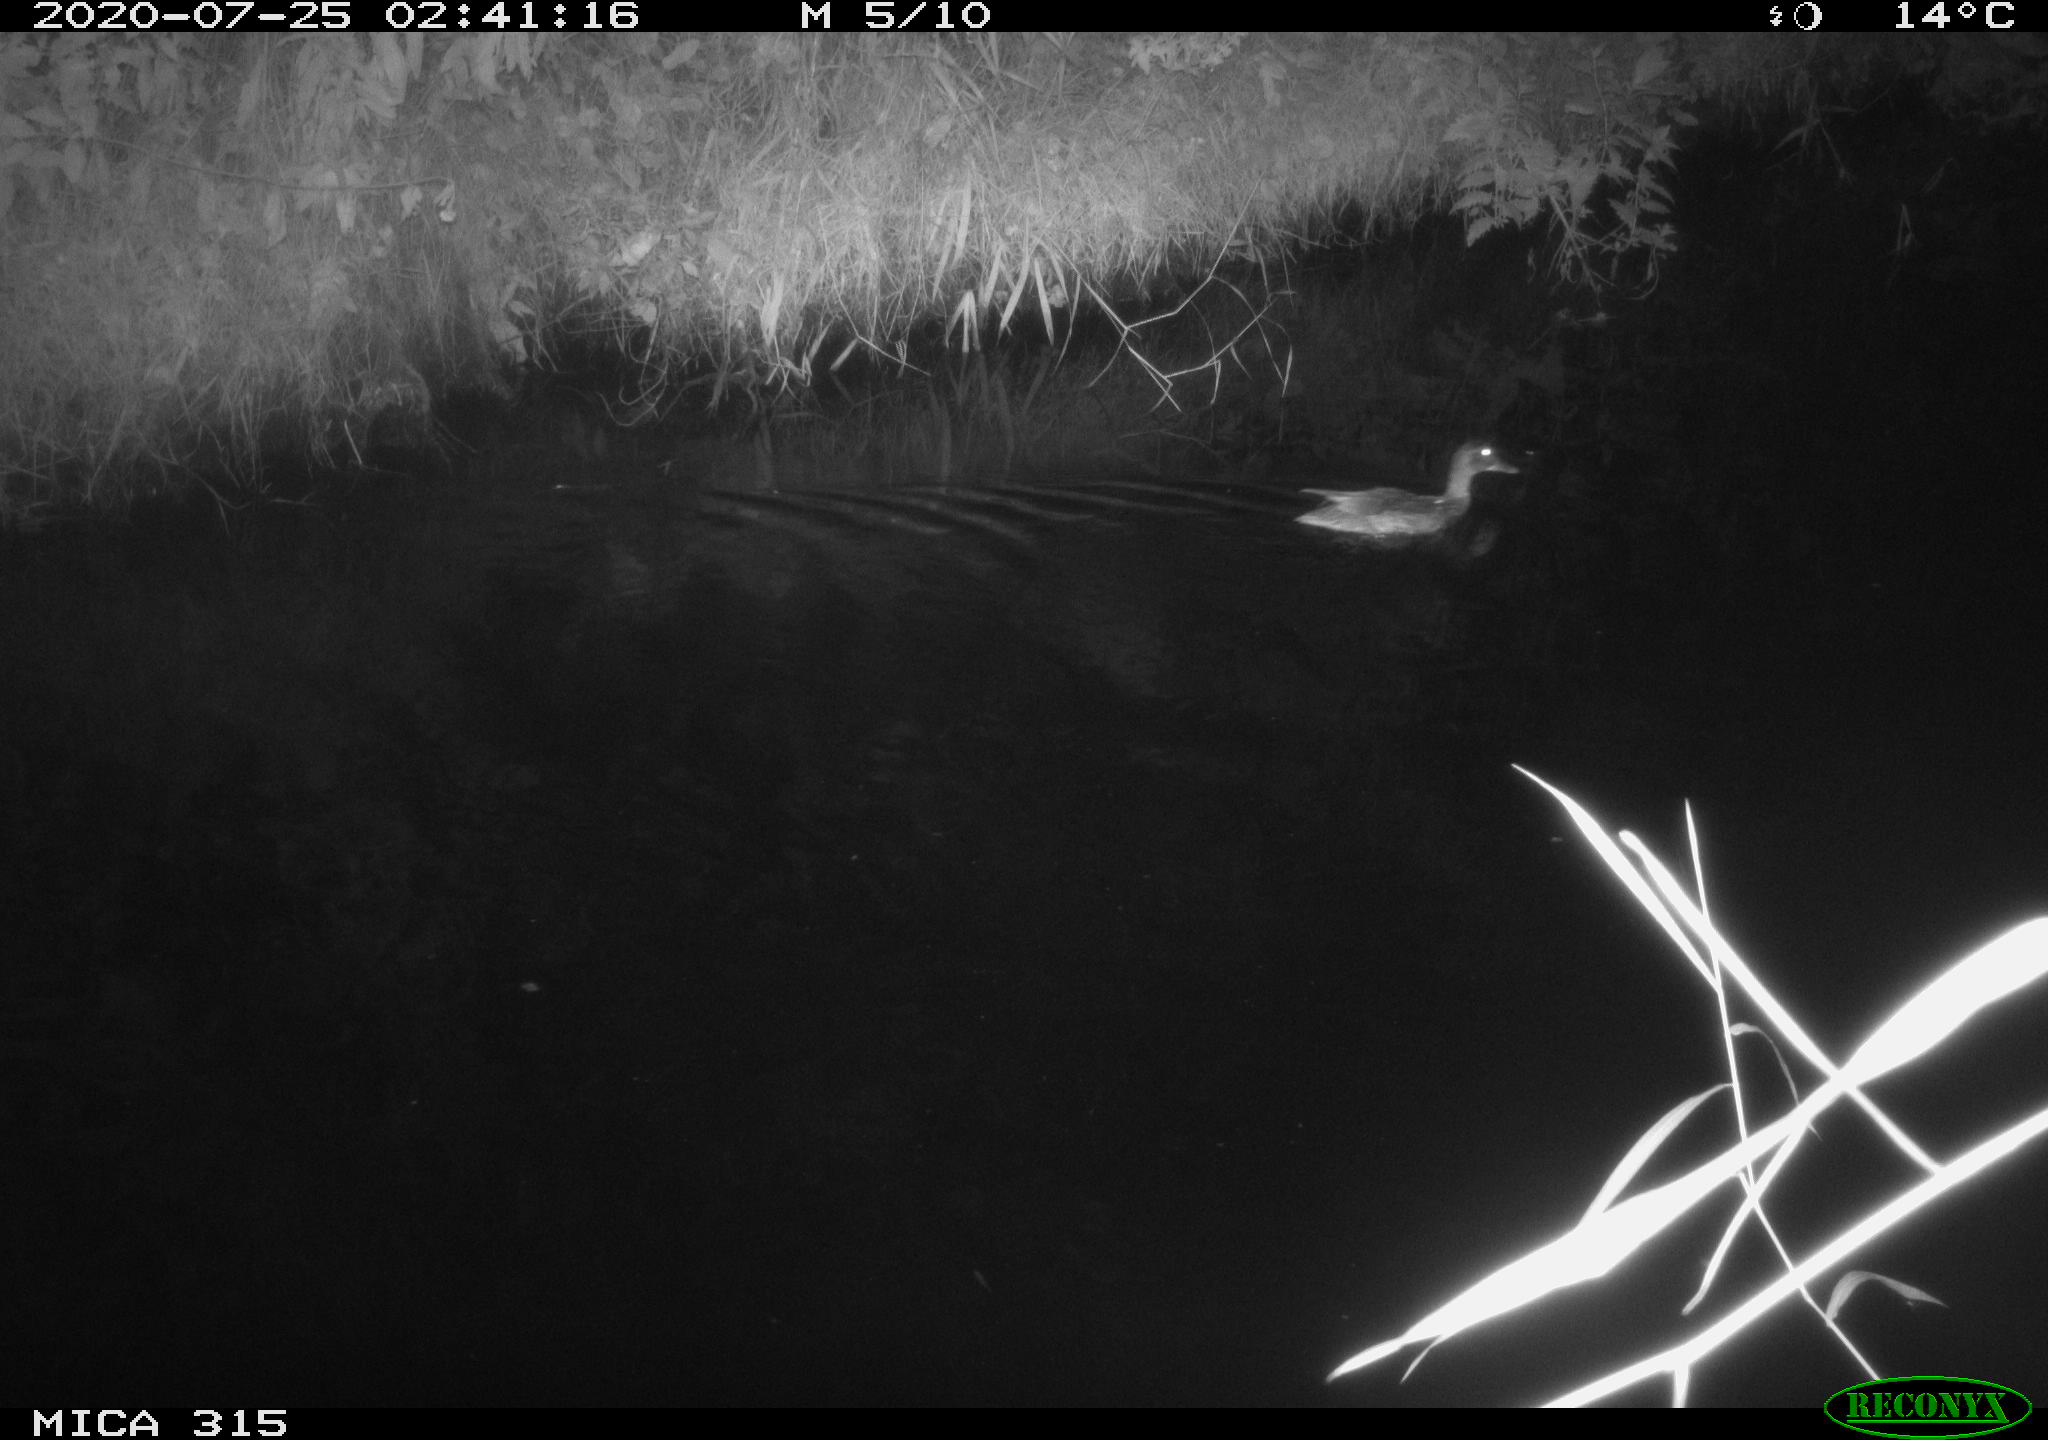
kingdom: Animalia
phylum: Chordata
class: Aves
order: Anseriformes
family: Anatidae
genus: Anas
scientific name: Anas platyrhynchos
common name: Mallard
